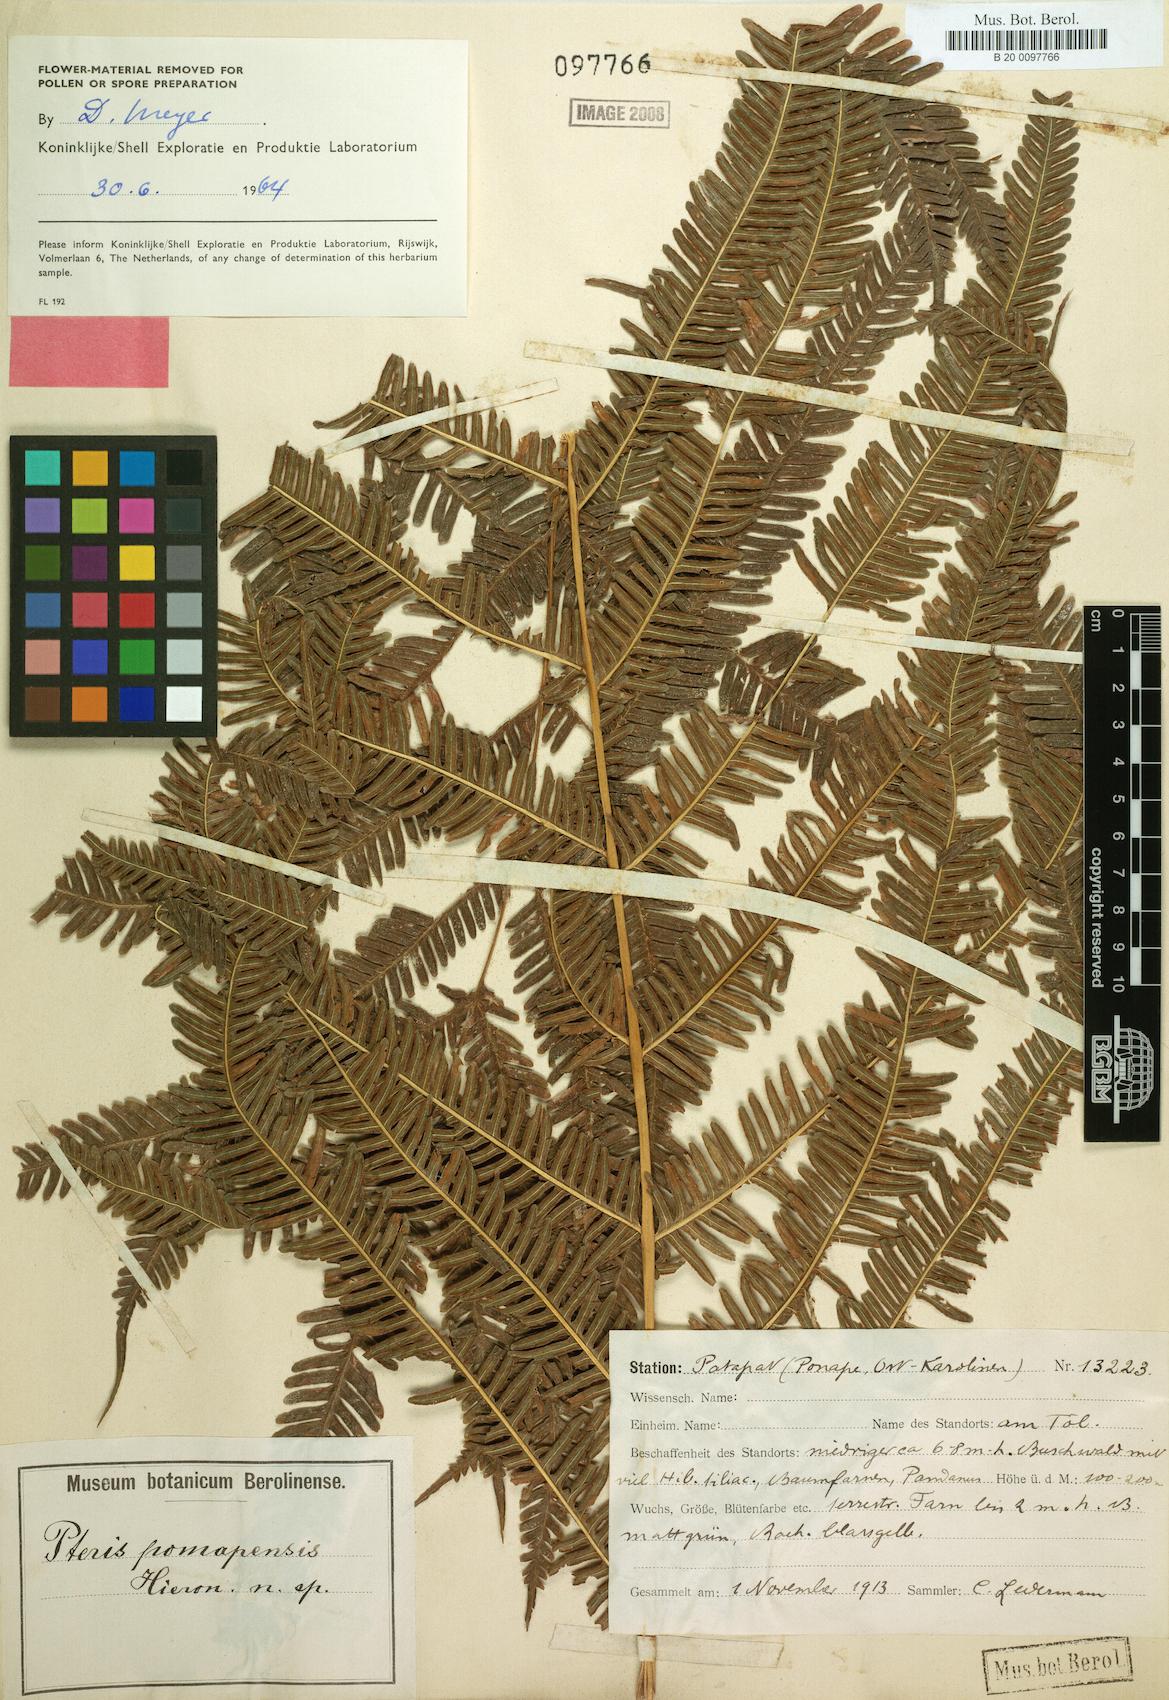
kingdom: Plantae
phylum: Tracheophyta
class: Polypodiopsida
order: Polypodiales
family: Pteridaceae
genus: Pteris
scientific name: Pteris
